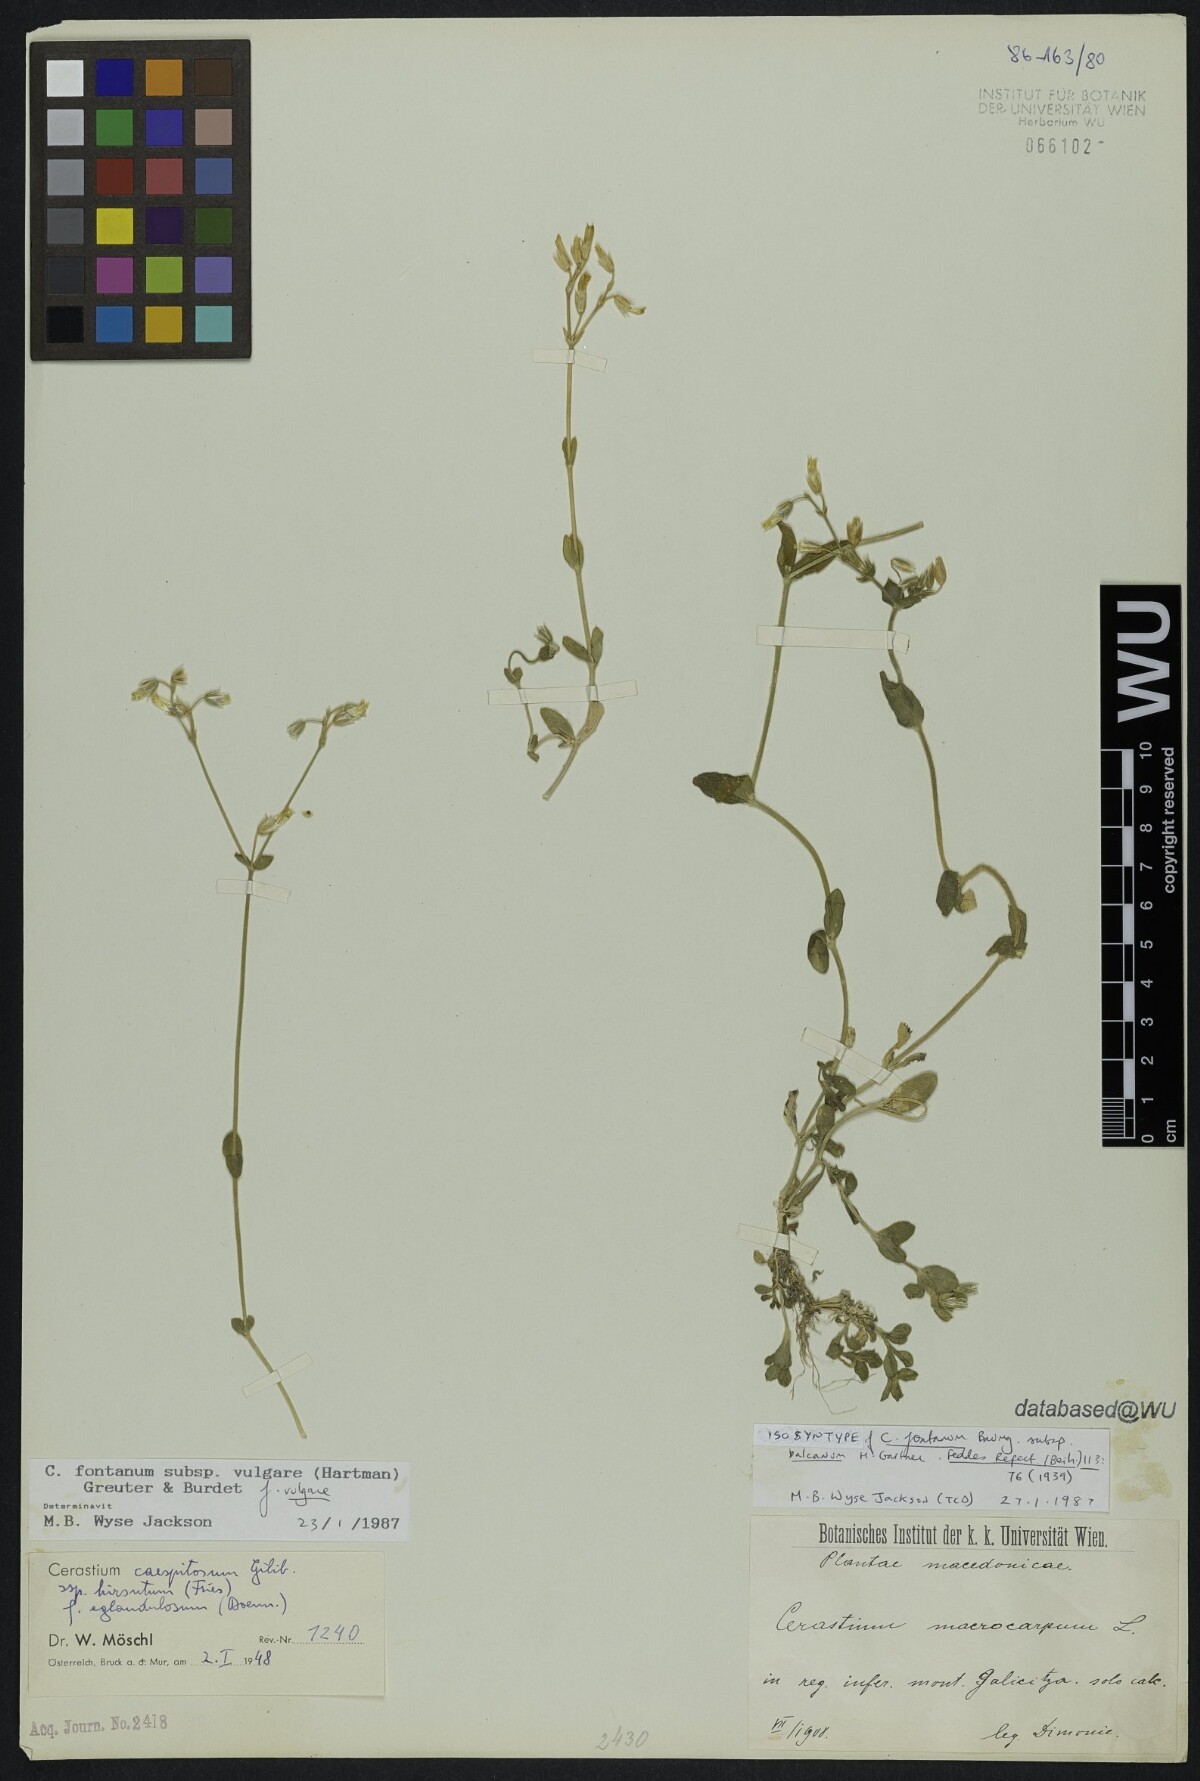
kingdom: Plantae
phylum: Tracheophyta
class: Magnoliopsida
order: Caryophyllales
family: Caryophyllaceae
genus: Cerastium
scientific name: Cerastium holosteoides
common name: Big chickweed
